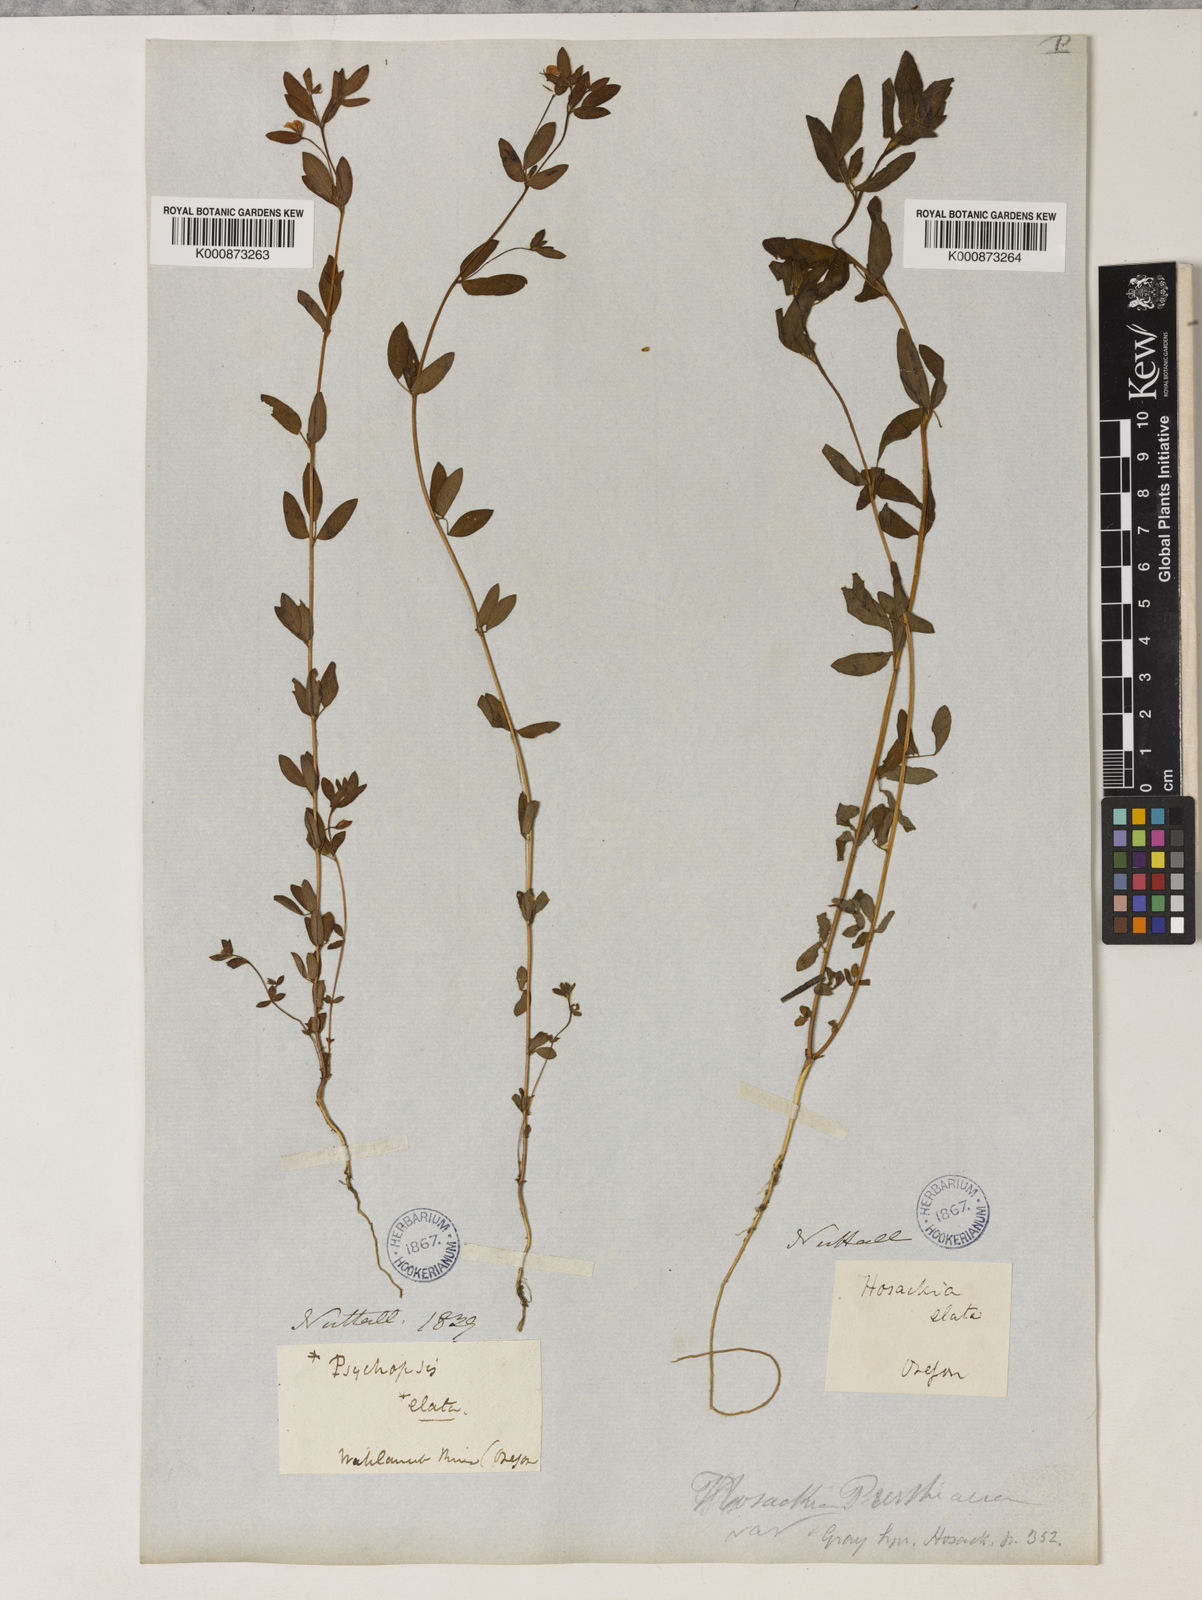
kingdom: Plantae
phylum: Tracheophyta
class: Magnoliopsida
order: Fabales
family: Fabaceae
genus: Collaea
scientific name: Collaea speciosa
